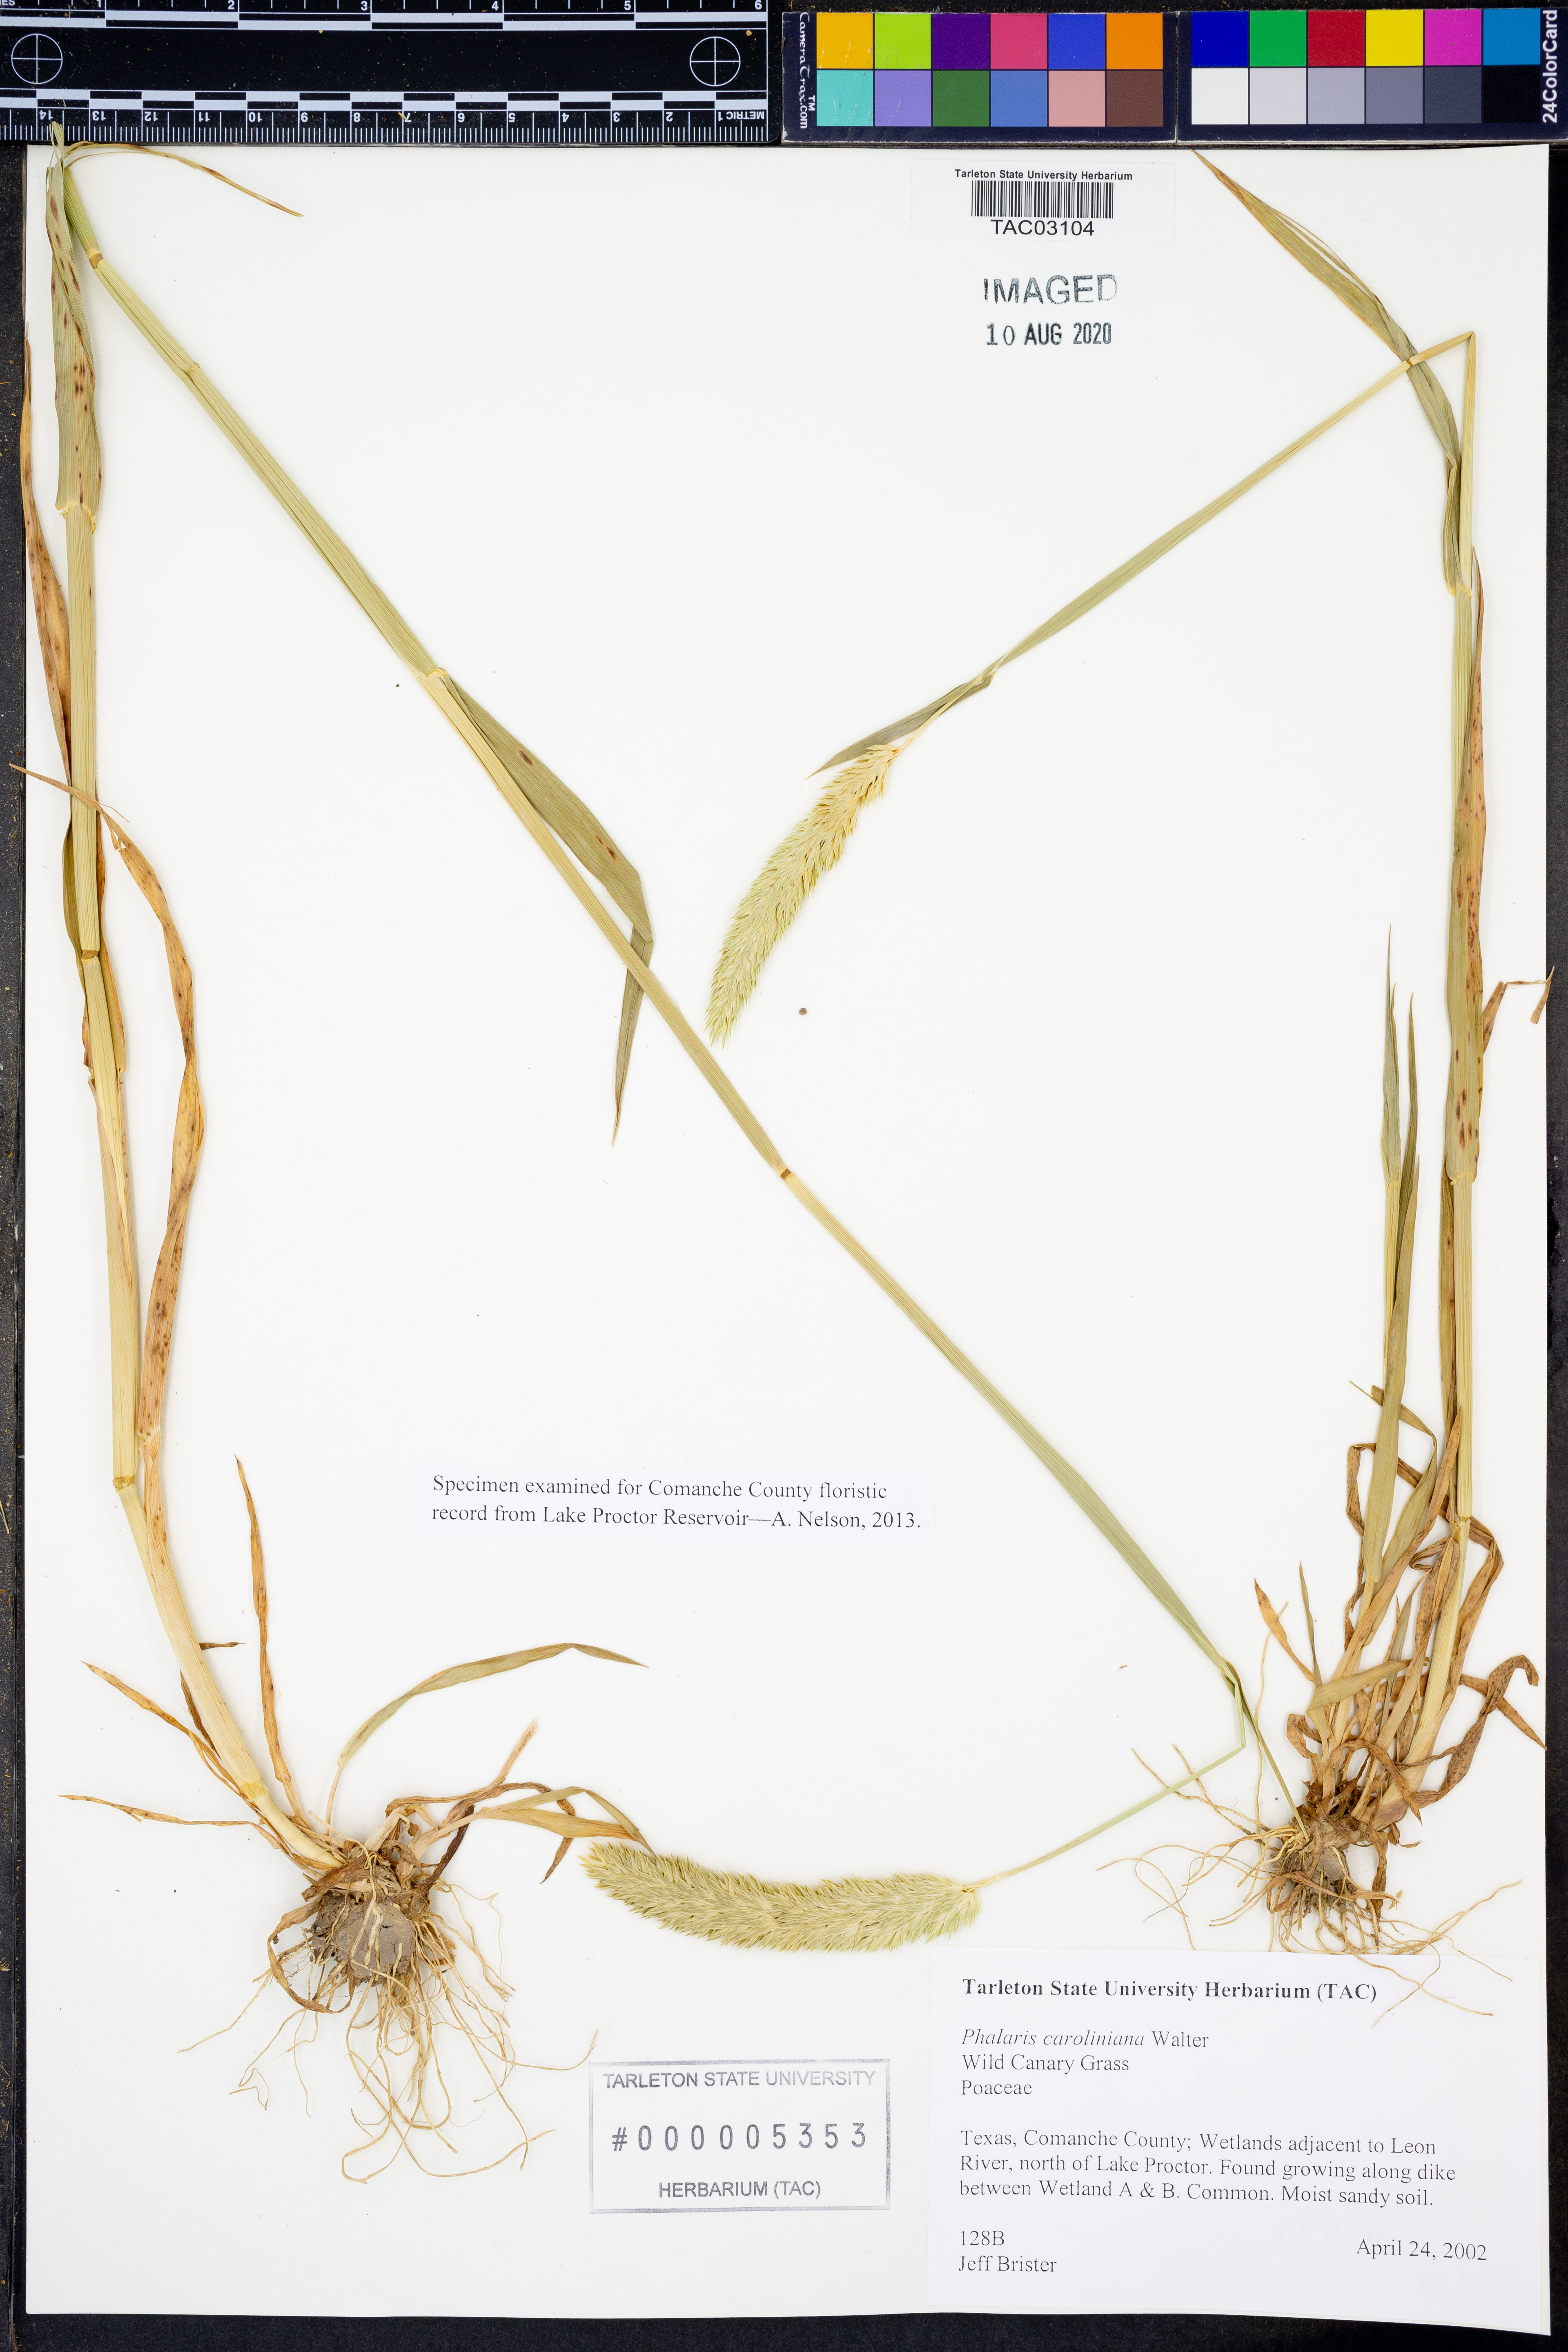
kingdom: Plantae
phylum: Tracheophyta
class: Liliopsida
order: Poales
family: Poaceae
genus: Phalaris
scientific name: Phalaris caroliniana
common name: May grass
